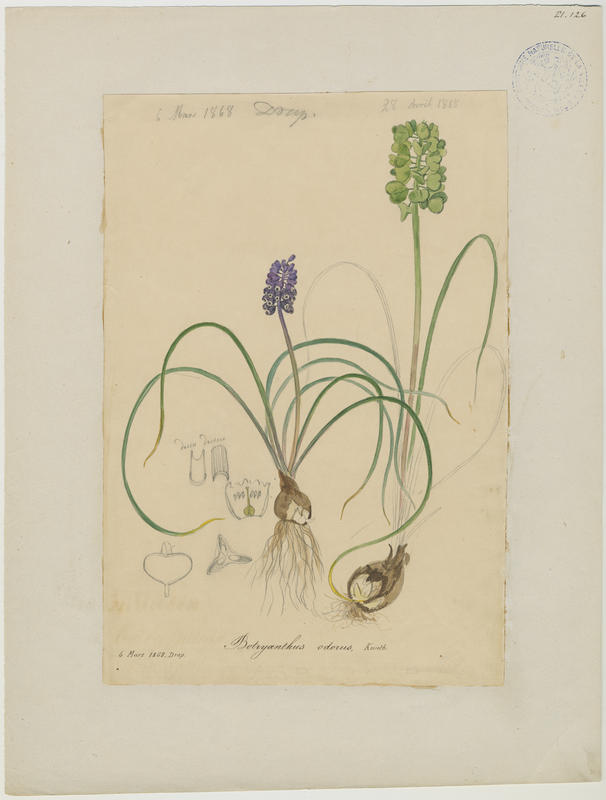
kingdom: Plantae
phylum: Tracheophyta
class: Liliopsida
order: Asparagales
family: Asparagaceae
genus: Muscari
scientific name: Muscari neglectum
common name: Grape-hyacinth
